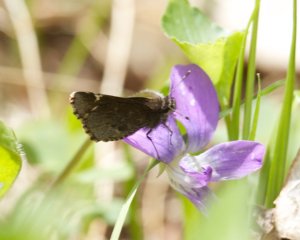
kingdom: Animalia
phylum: Arthropoda
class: Insecta
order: Lepidoptera
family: Hesperiidae
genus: Mastor
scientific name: Mastor vialis
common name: Common Roadside-Skipper
